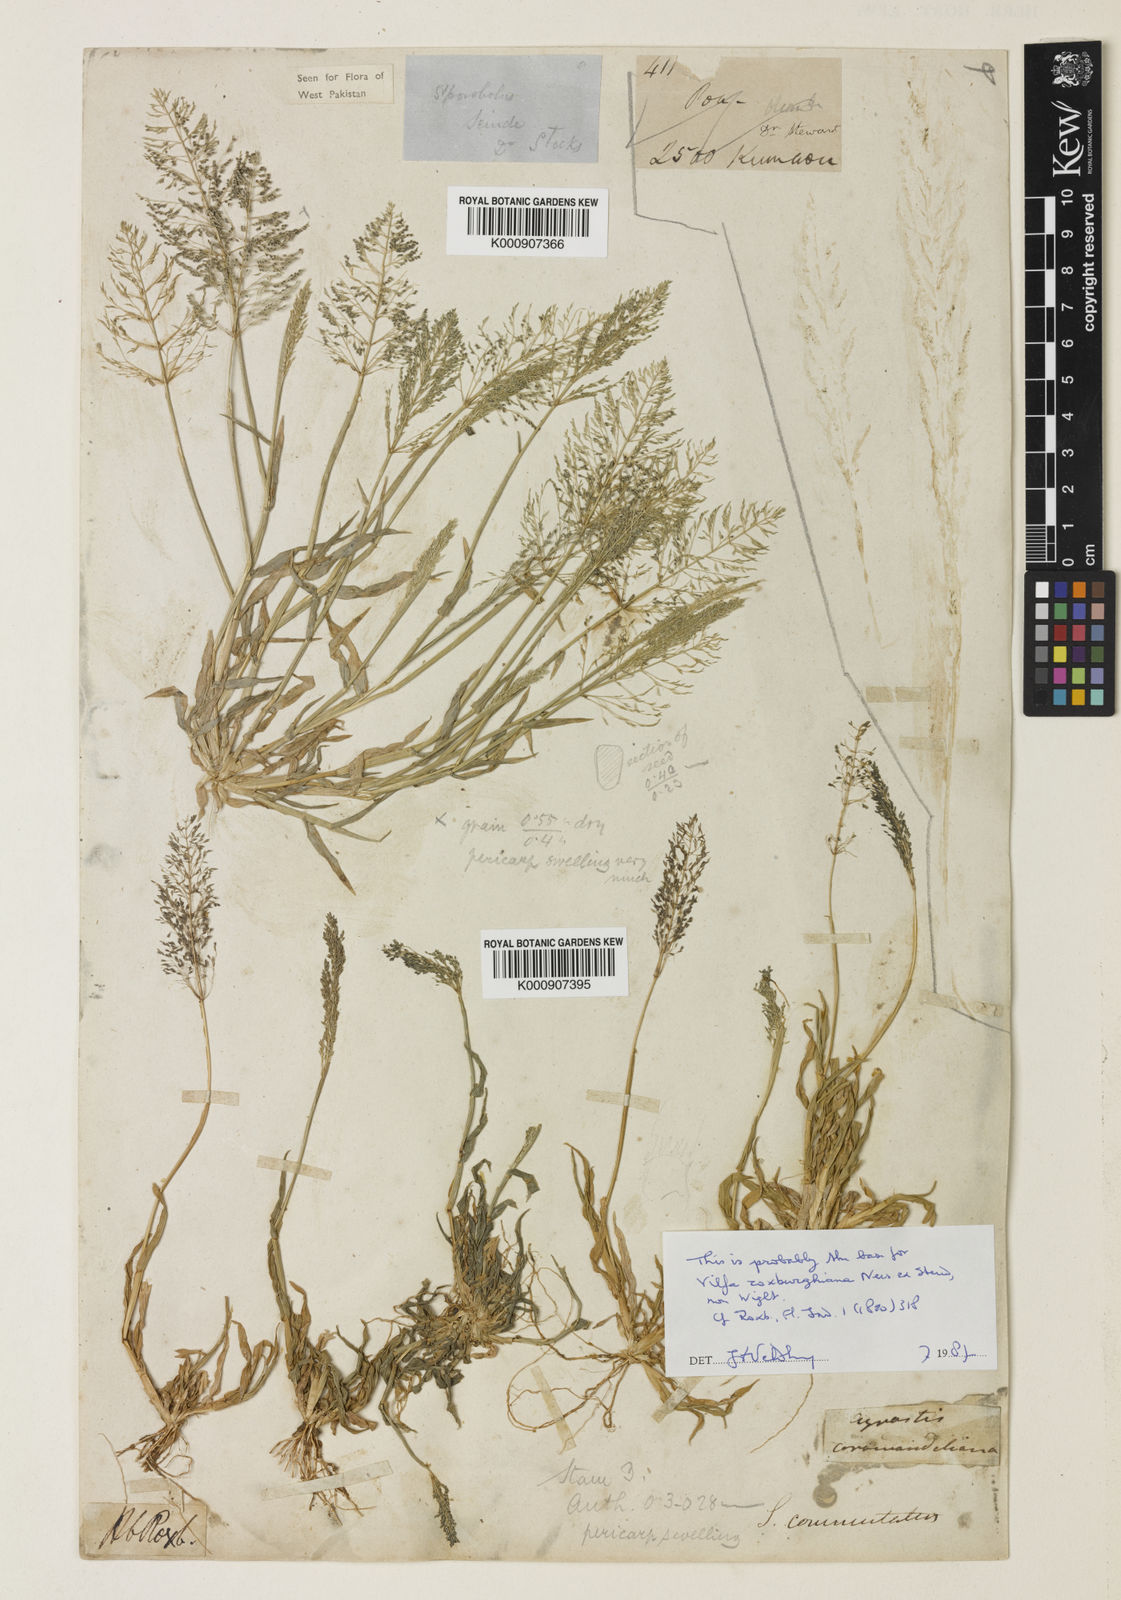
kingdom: Plantae
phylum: Tracheophyta
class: Liliopsida
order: Poales
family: Poaceae
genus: Sporobolus
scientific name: Sporobolus coromandelianus
